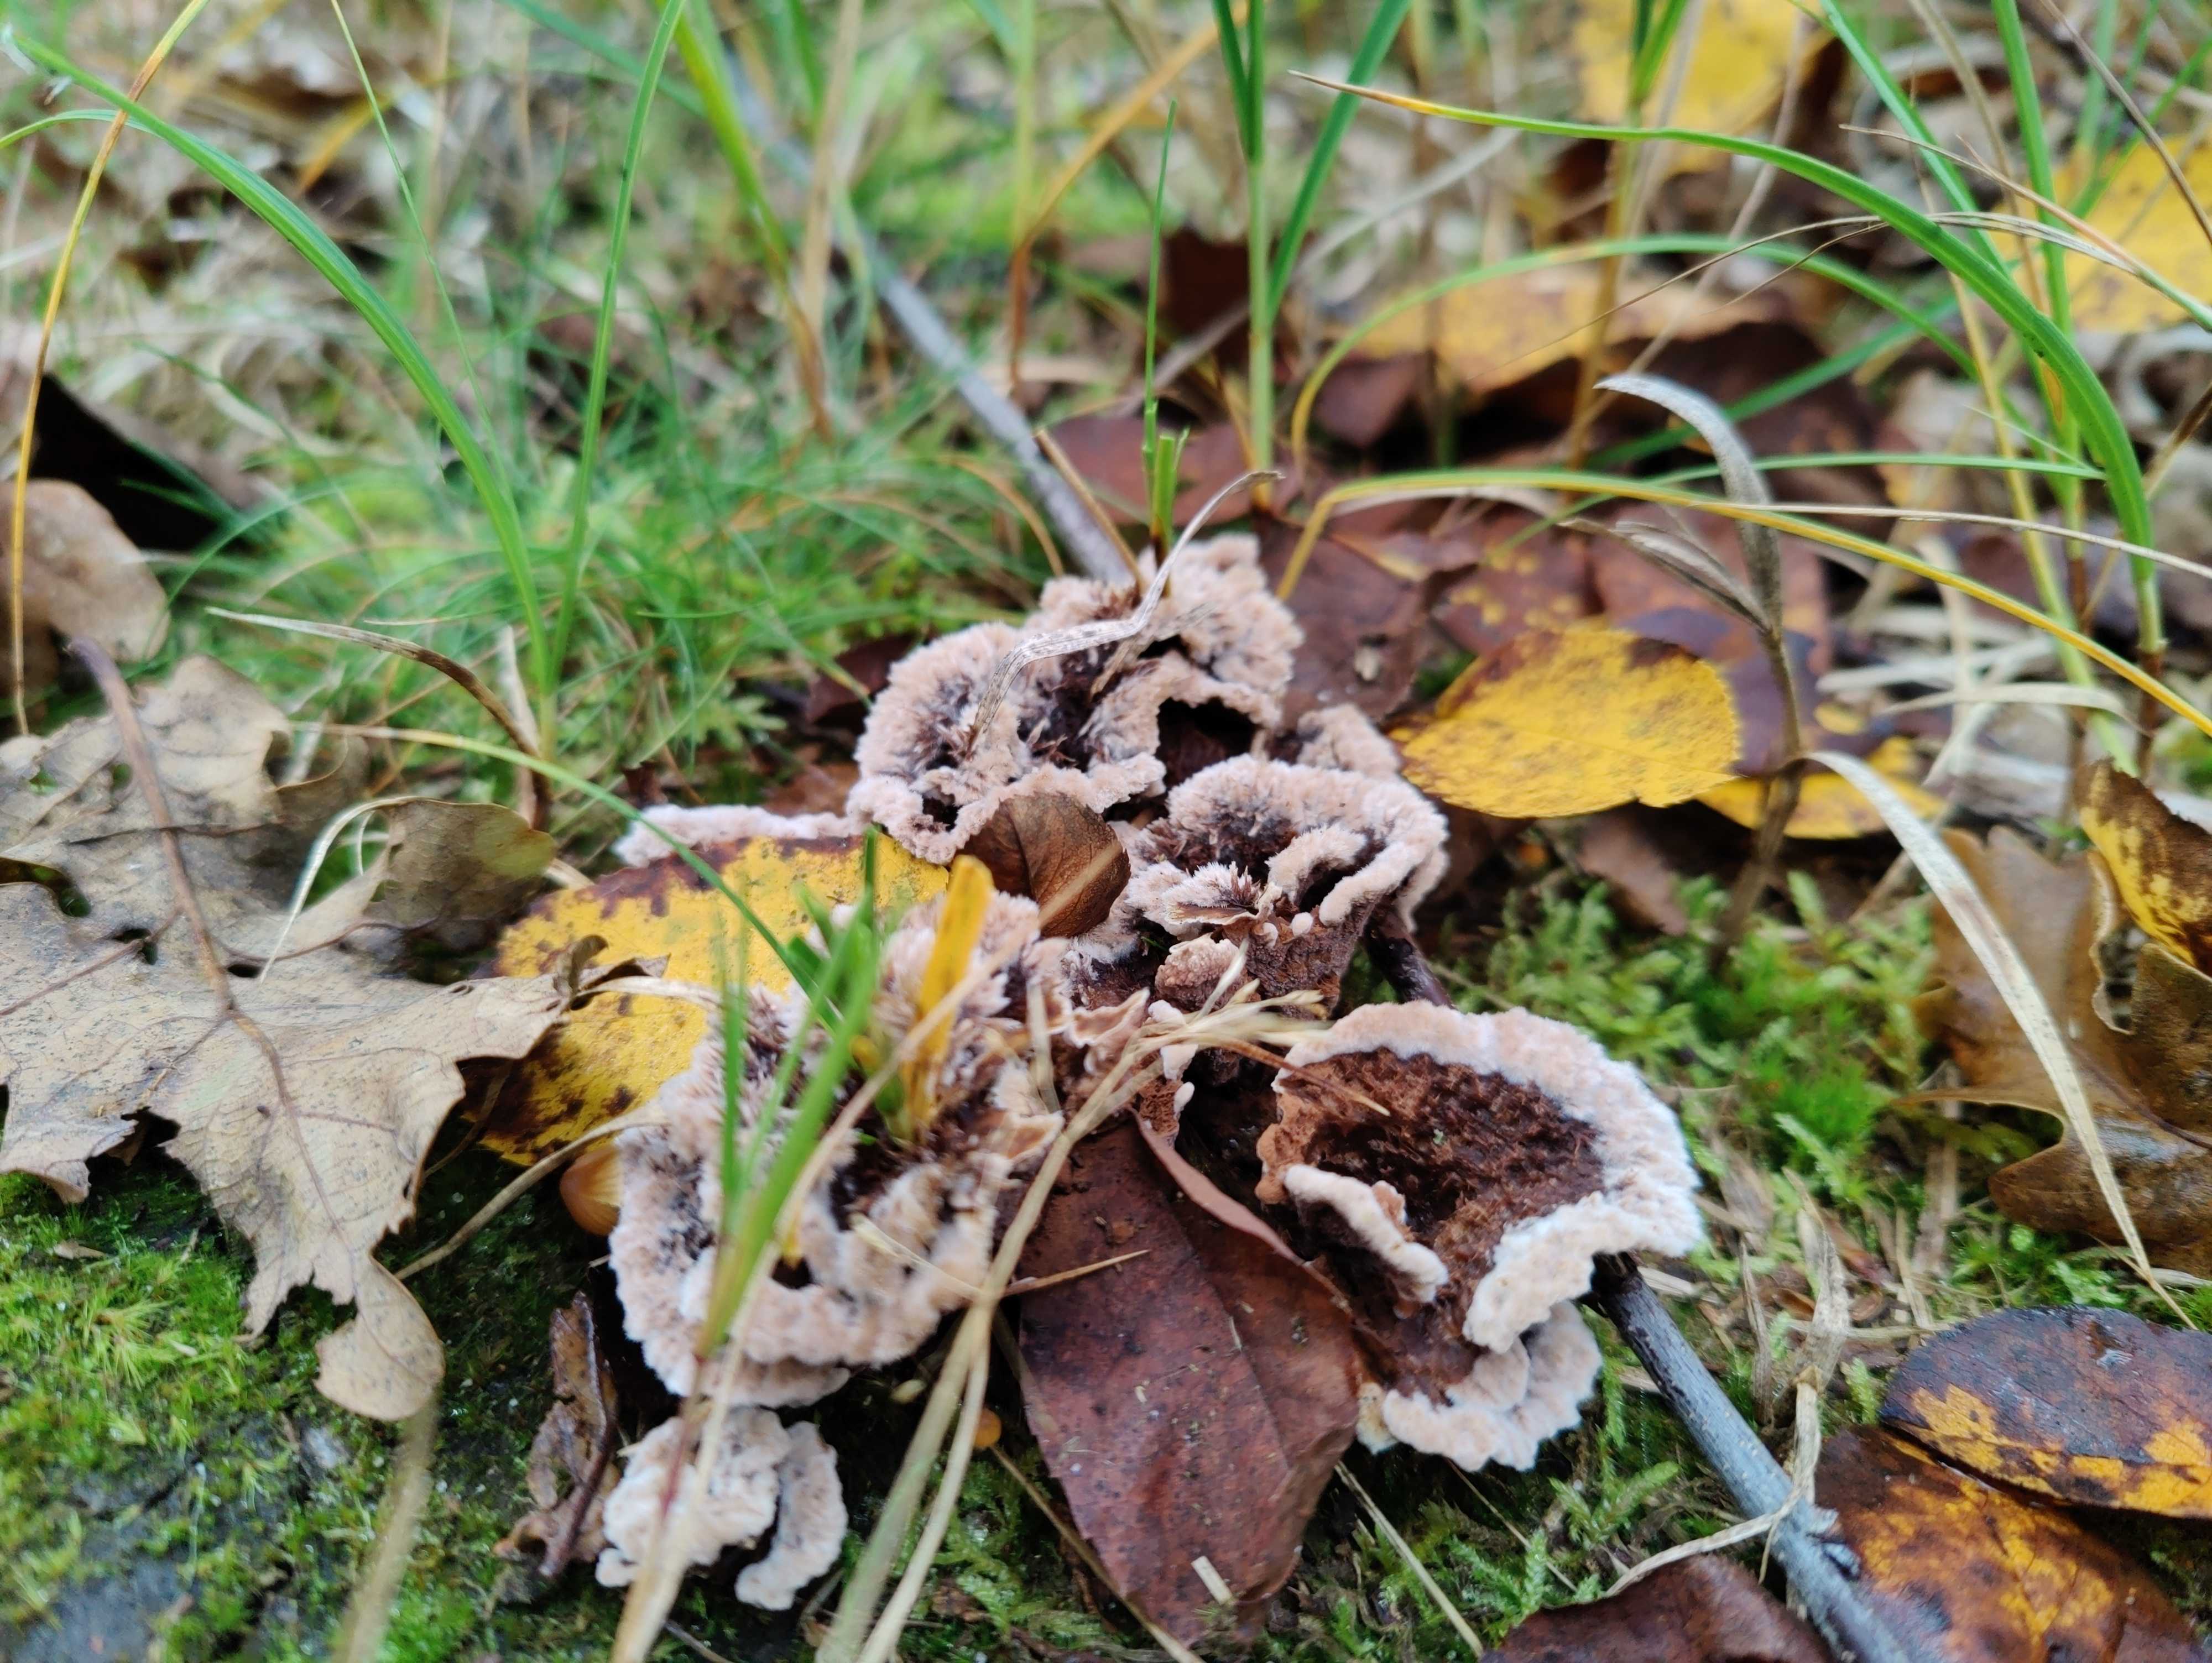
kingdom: Fungi
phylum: Basidiomycota
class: Agaricomycetes
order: Thelephorales
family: Thelephoraceae
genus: Thelephora
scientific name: Thelephora terrestris
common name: fliget frynsesvamp
